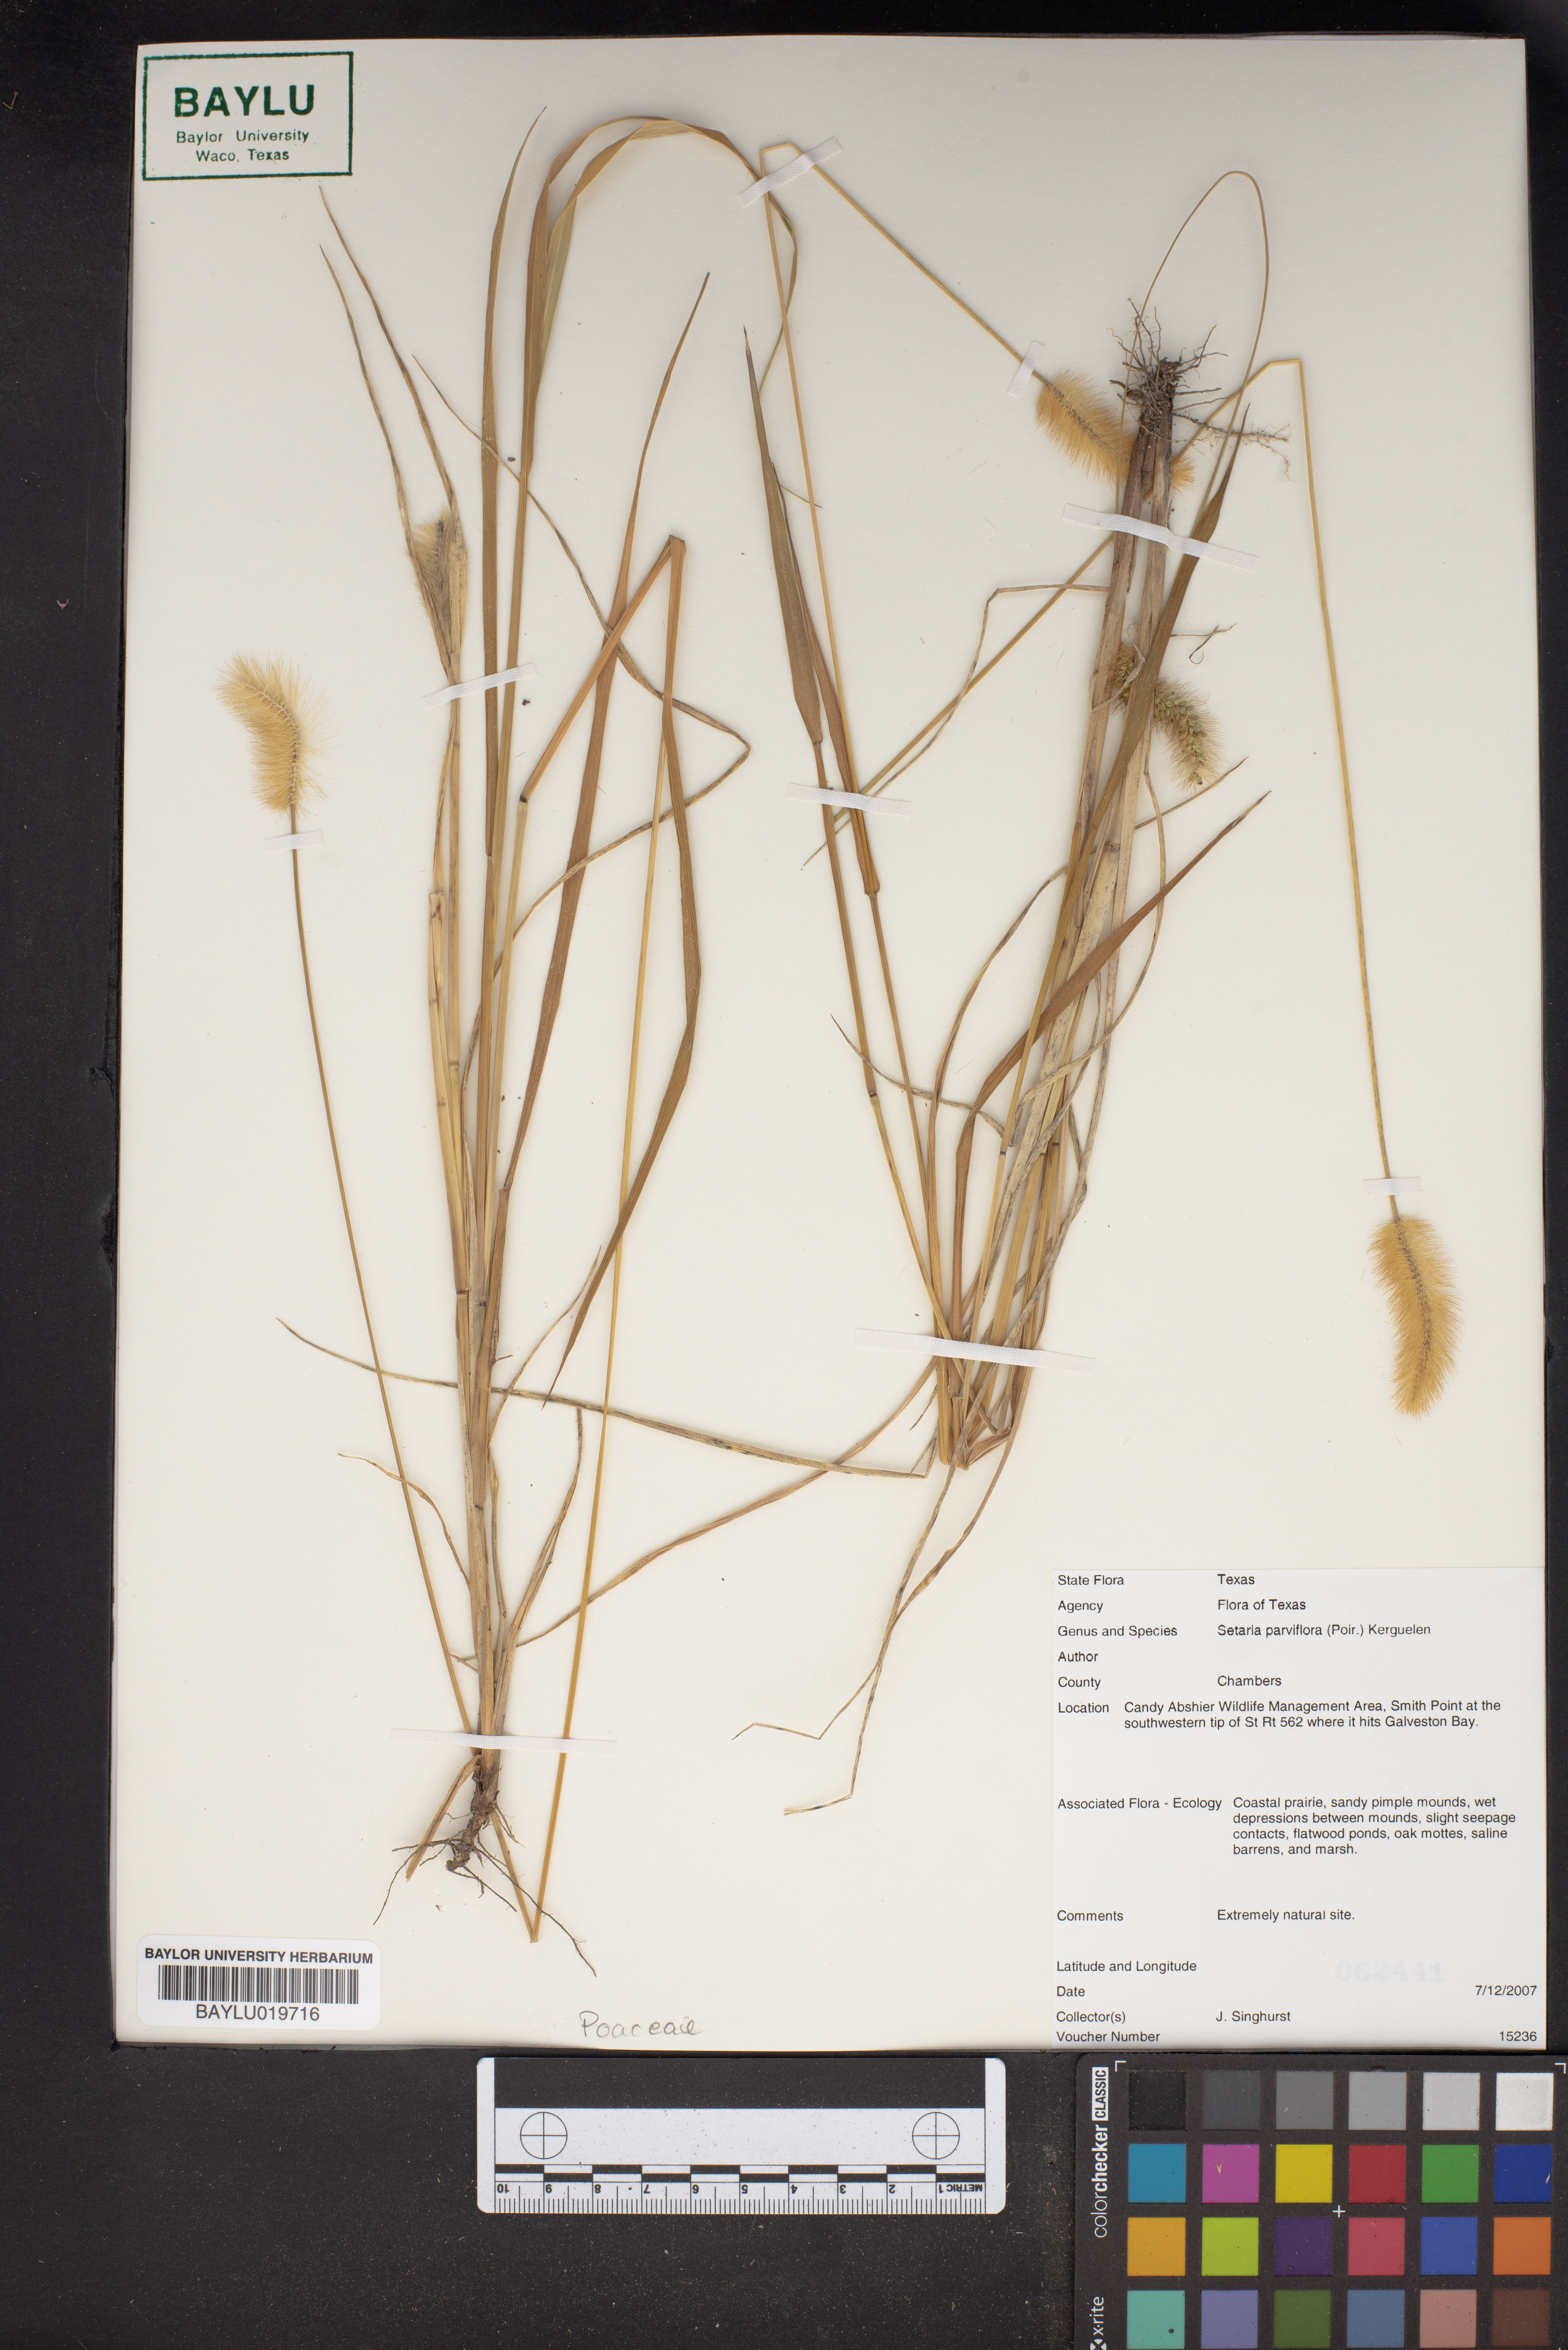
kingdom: Plantae
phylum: Tracheophyta
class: Liliopsida
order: Poales
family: Poaceae
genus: Setaria
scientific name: Setaria parviflora
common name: Knotroot bristle-grass
